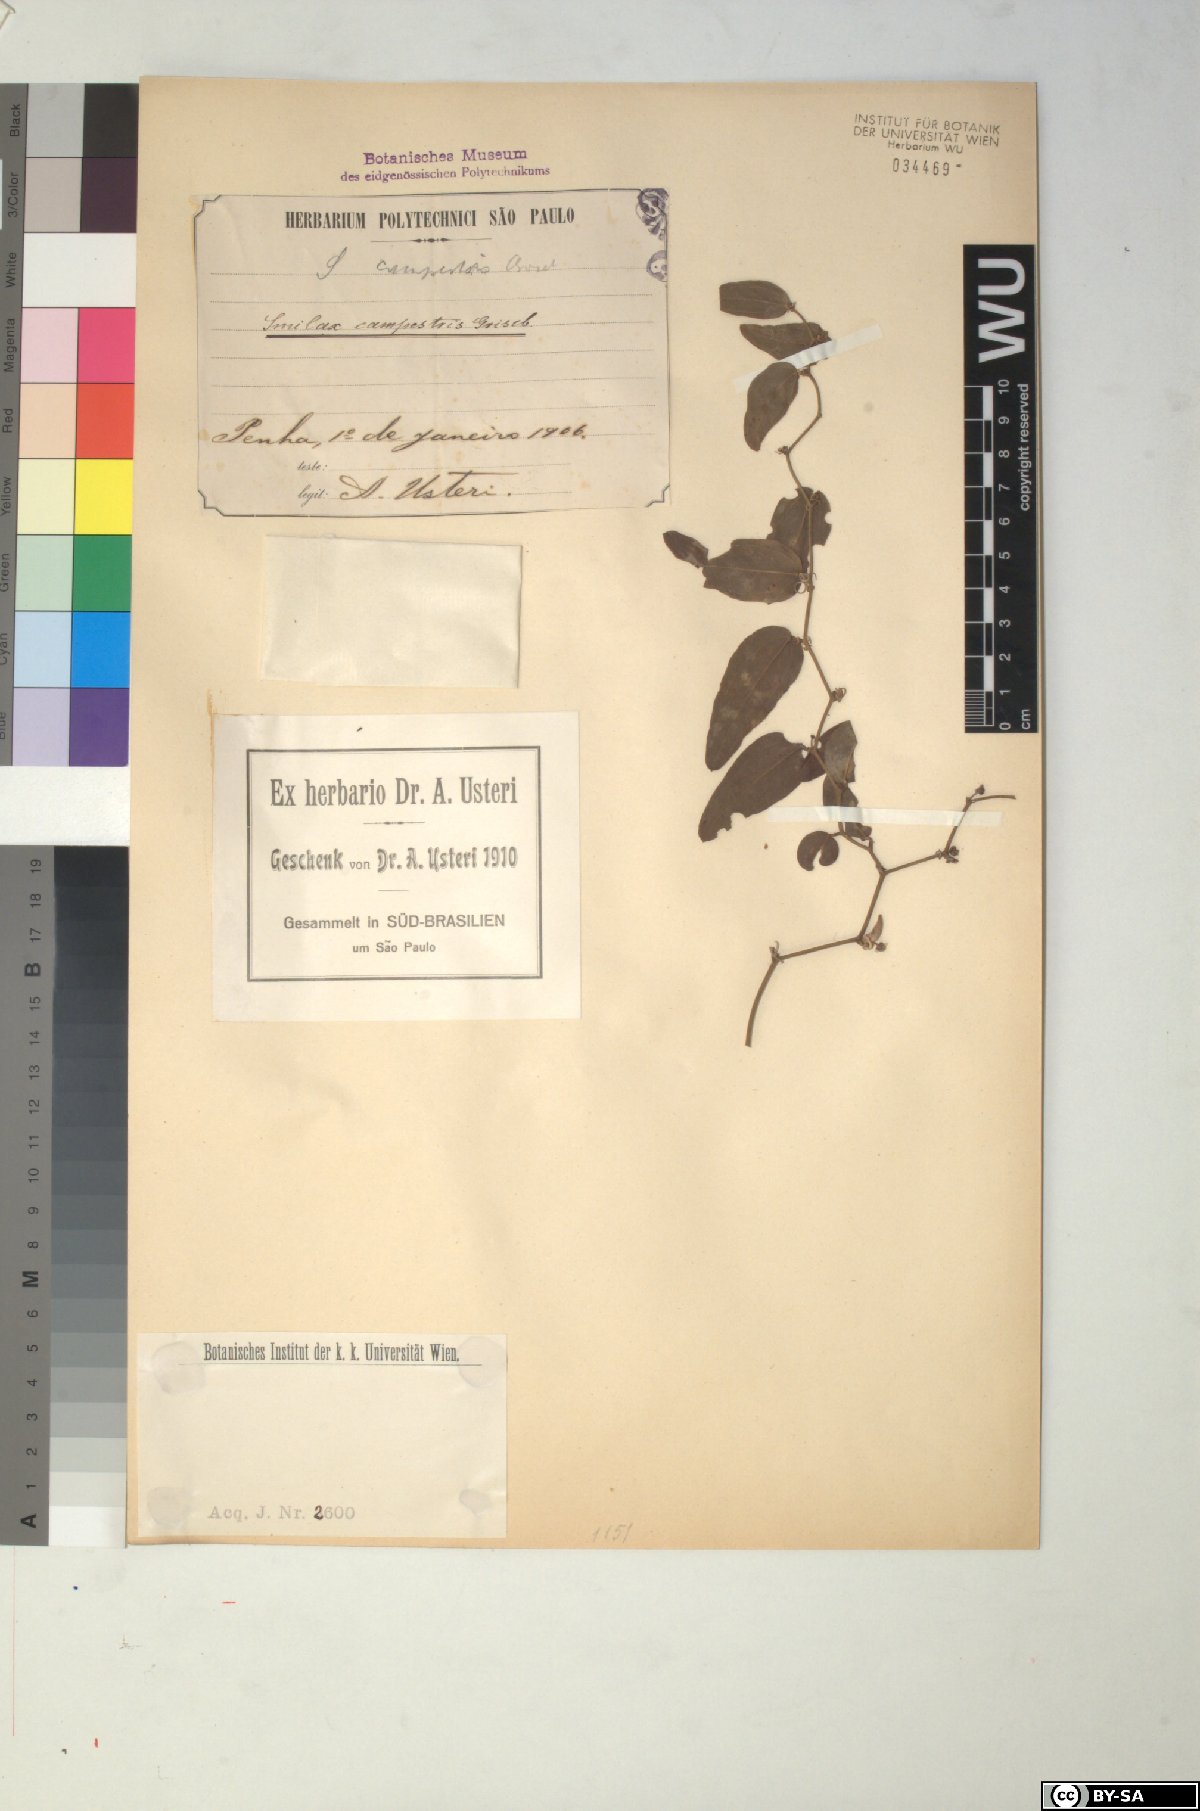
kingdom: Plantae
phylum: Tracheophyta
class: Liliopsida
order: Liliales
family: Smilacaceae
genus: Smilax
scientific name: Smilax campestris
